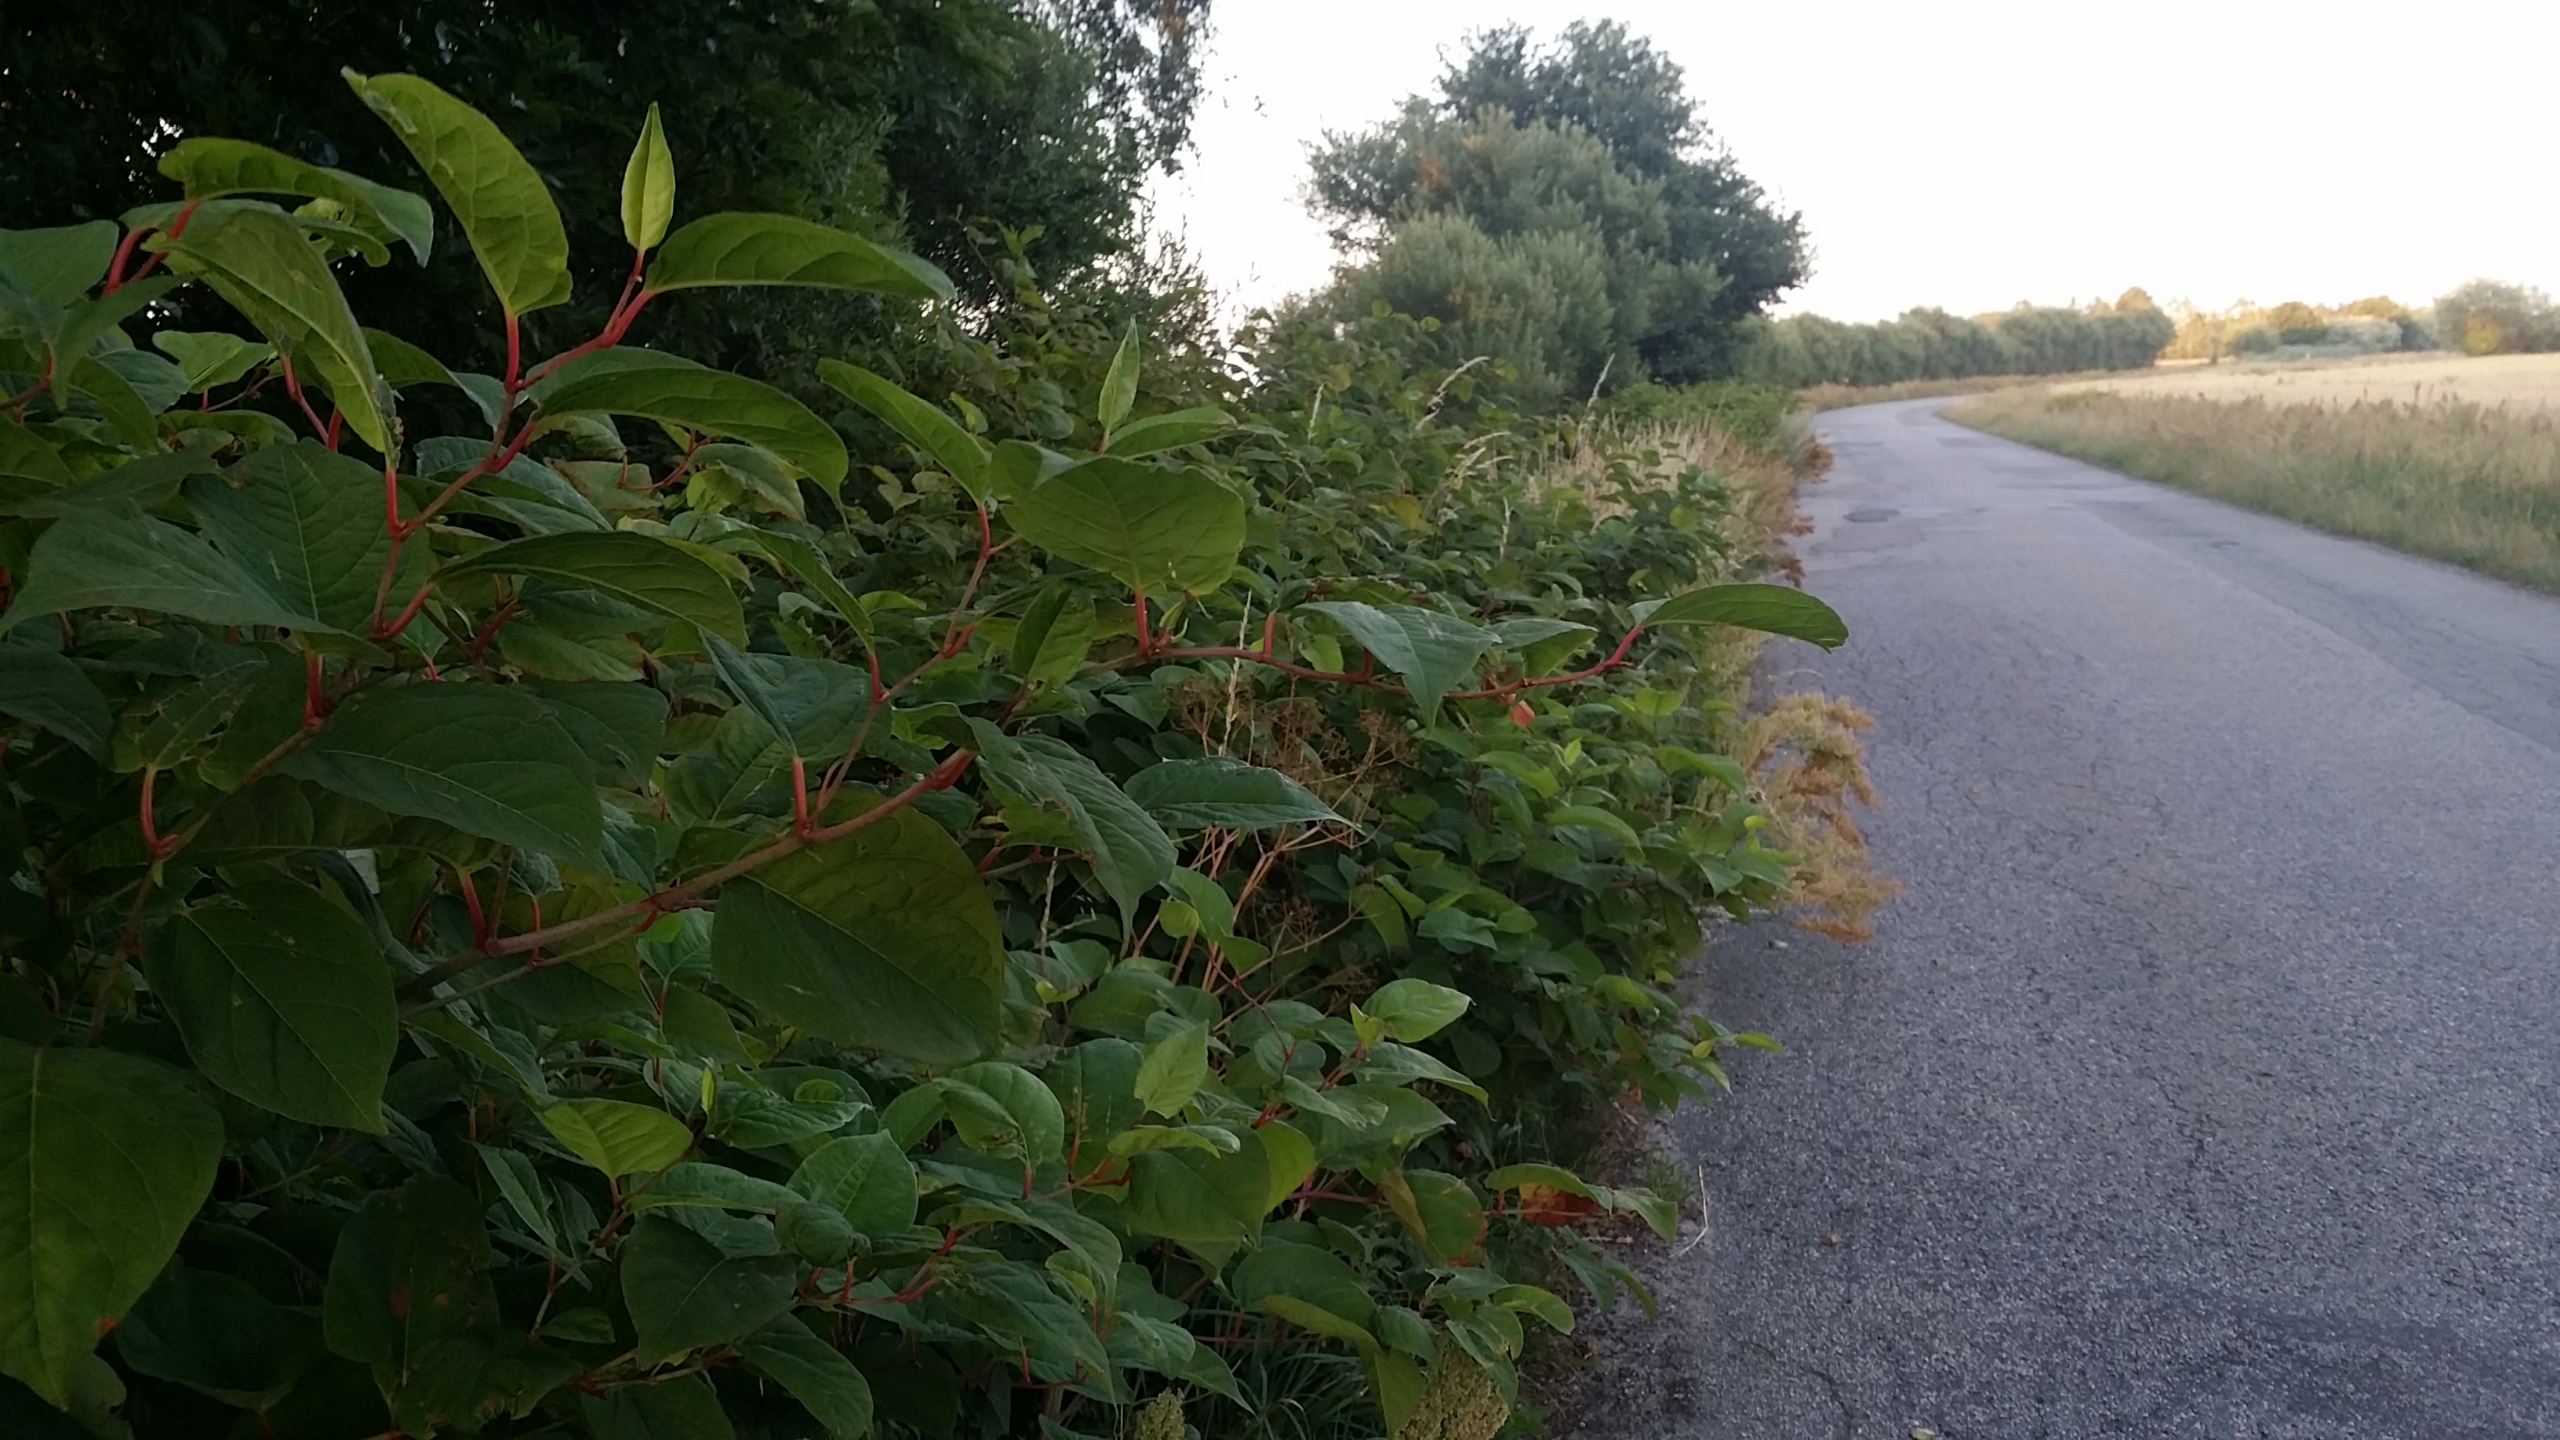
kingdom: Plantae
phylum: Tracheophyta
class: Magnoliopsida
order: Caryophyllales
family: Polygonaceae
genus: Reynoutria
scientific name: Reynoutria japonica
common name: Japan-pileurt
